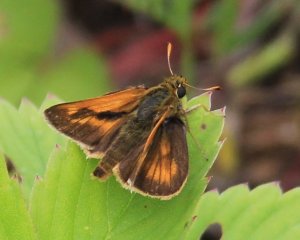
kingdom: Animalia
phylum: Arthropoda
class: Insecta
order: Lepidoptera
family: Hesperiidae
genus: Polites
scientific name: Polites
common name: Long Dash Skipper
